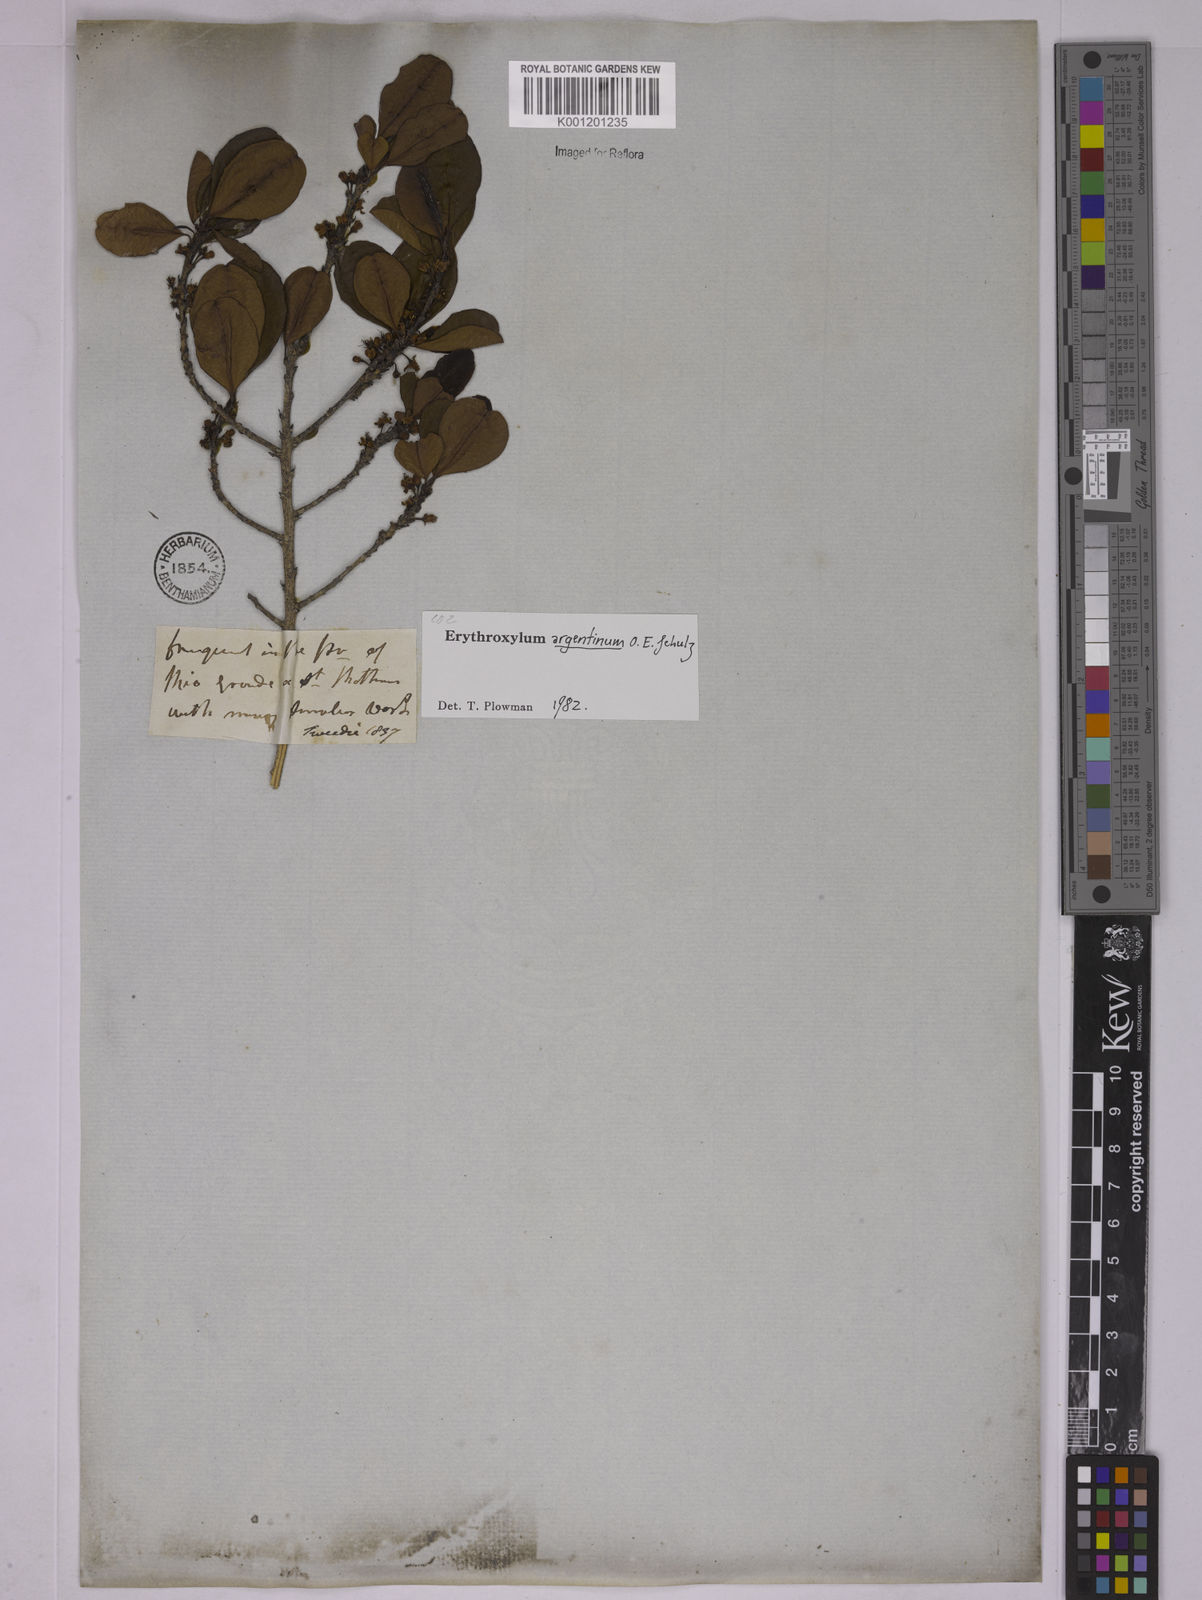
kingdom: Plantae
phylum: Tracheophyta
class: Magnoliopsida
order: Malpighiales
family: Erythroxylaceae
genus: Erythroxylum
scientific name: Erythroxylum argentinum
